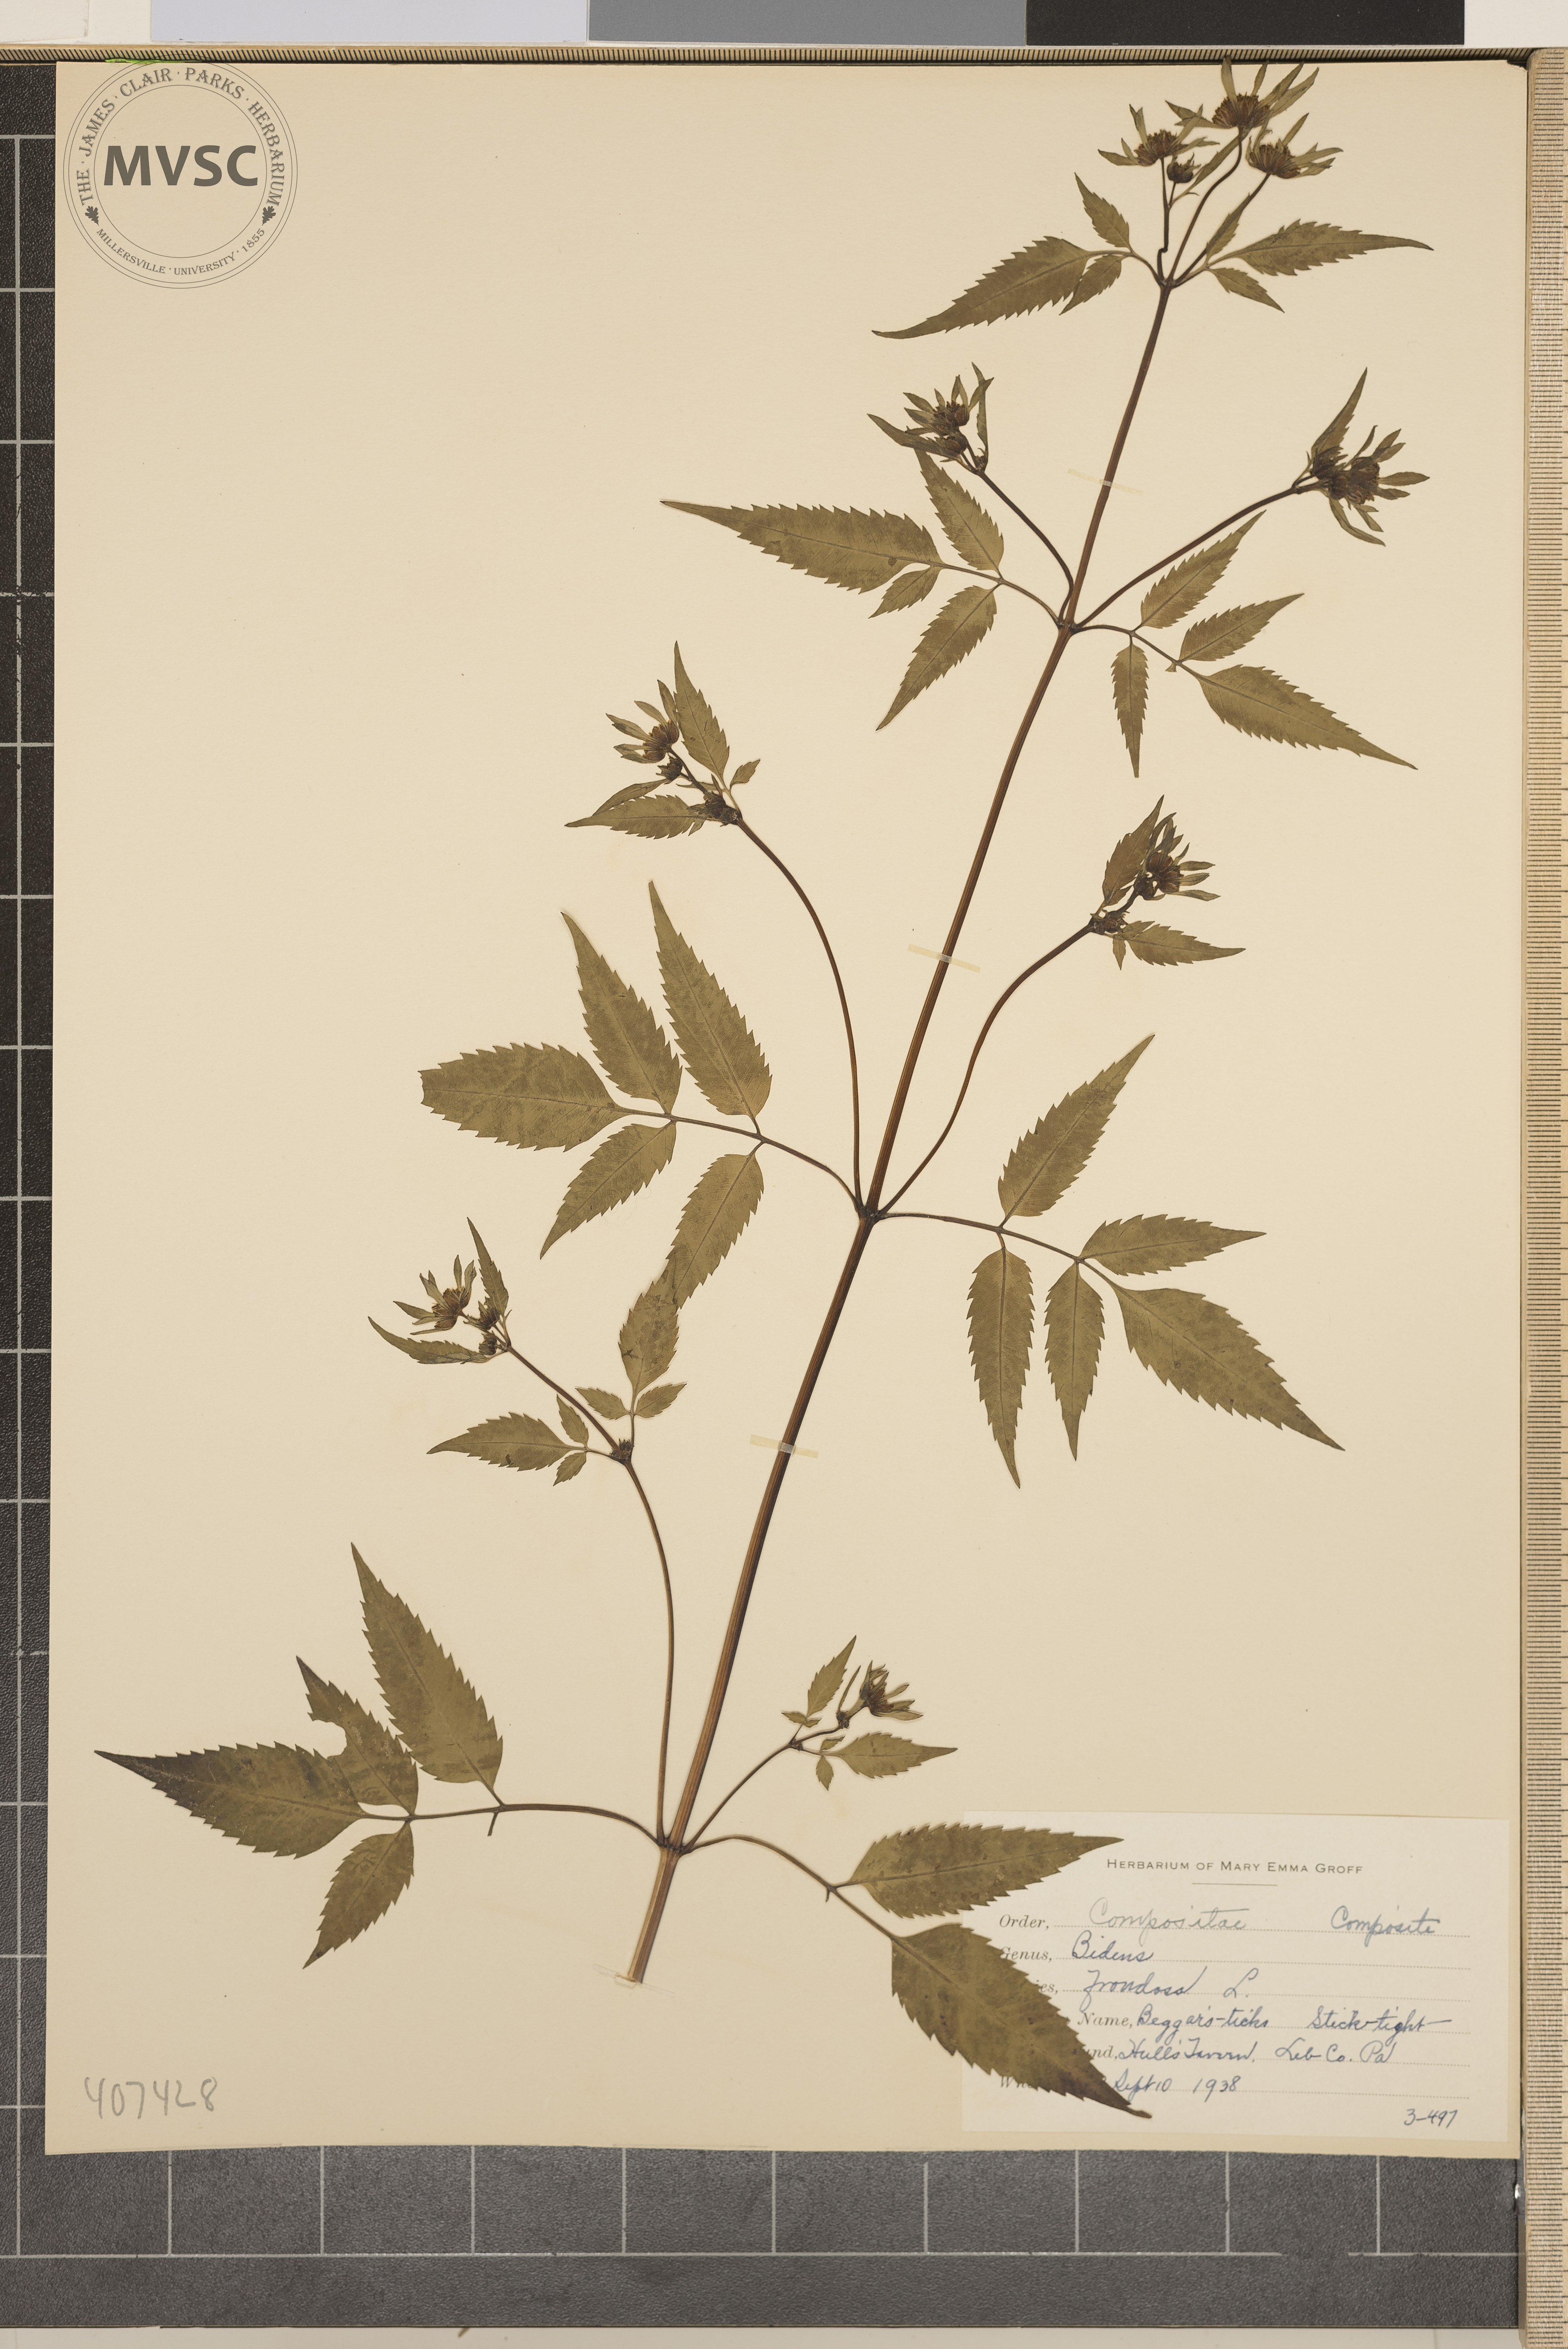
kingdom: Plantae
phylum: Tracheophyta
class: Magnoliopsida
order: Asterales
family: Asteraceae
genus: Bidens
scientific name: Bidens frondosa
